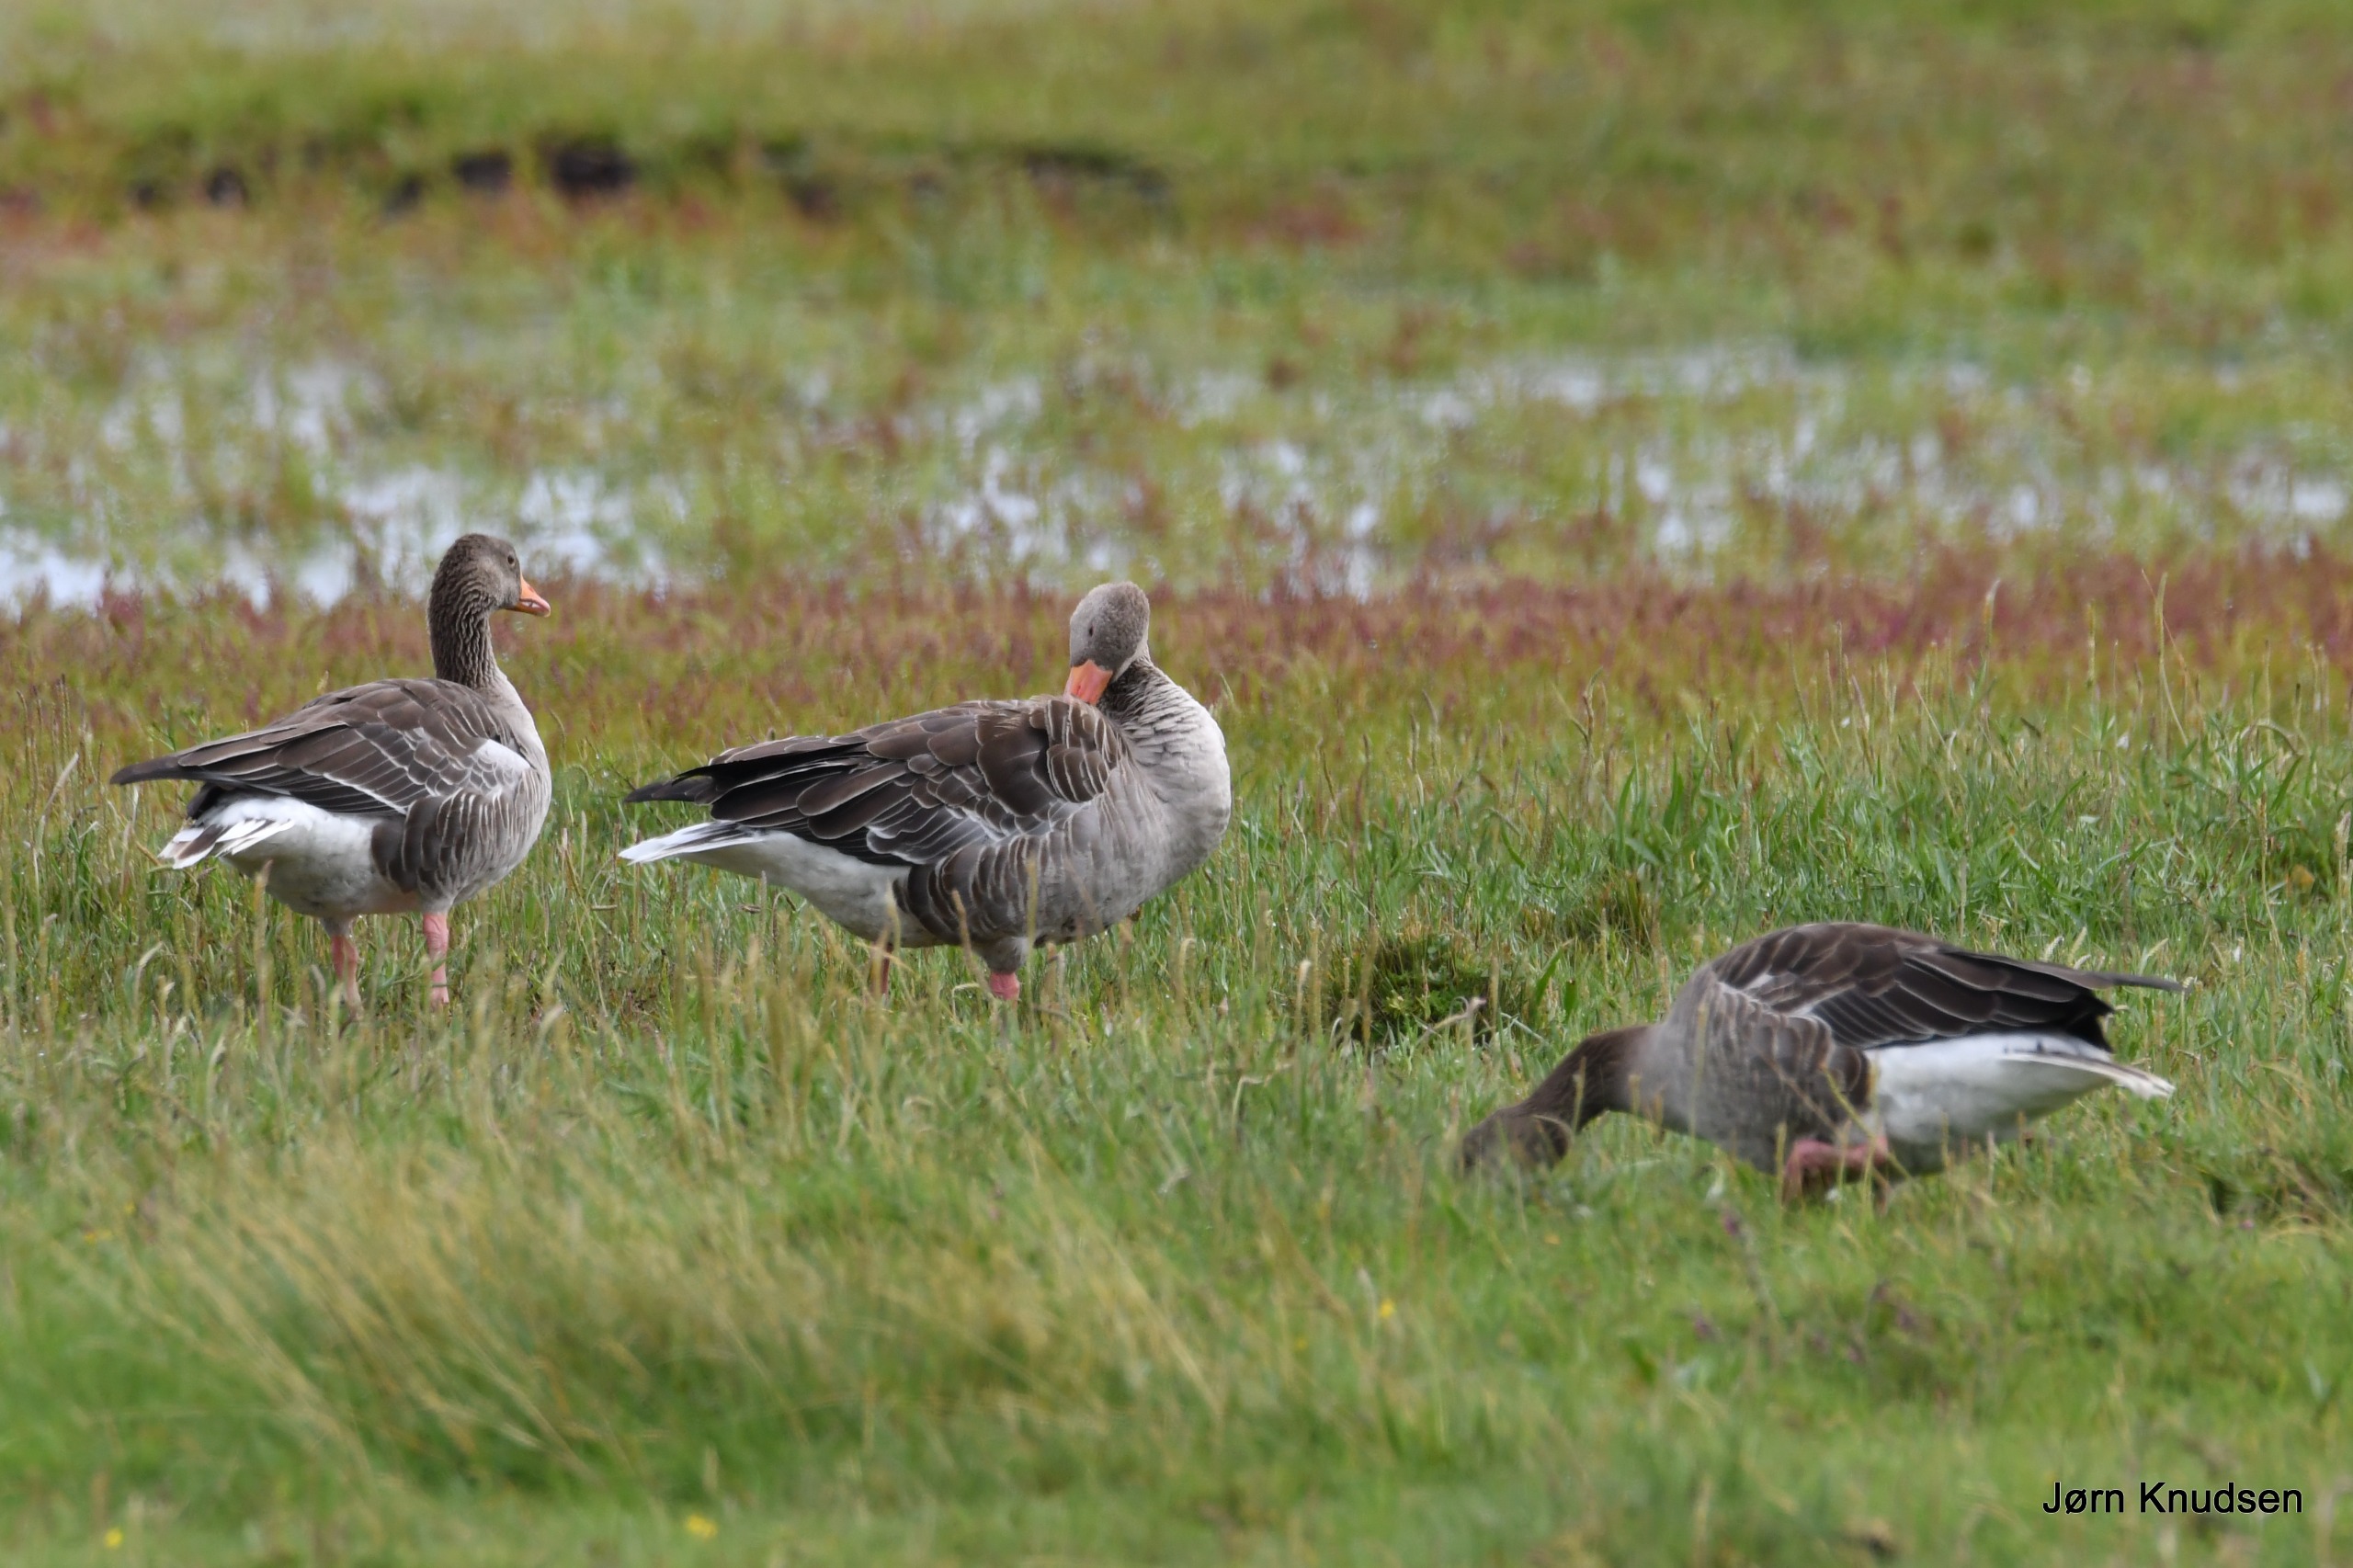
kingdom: Animalia
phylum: Chordata
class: Aves
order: Anseriformes
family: Anatidae
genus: Anser
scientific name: Anser anser
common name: Grågås
